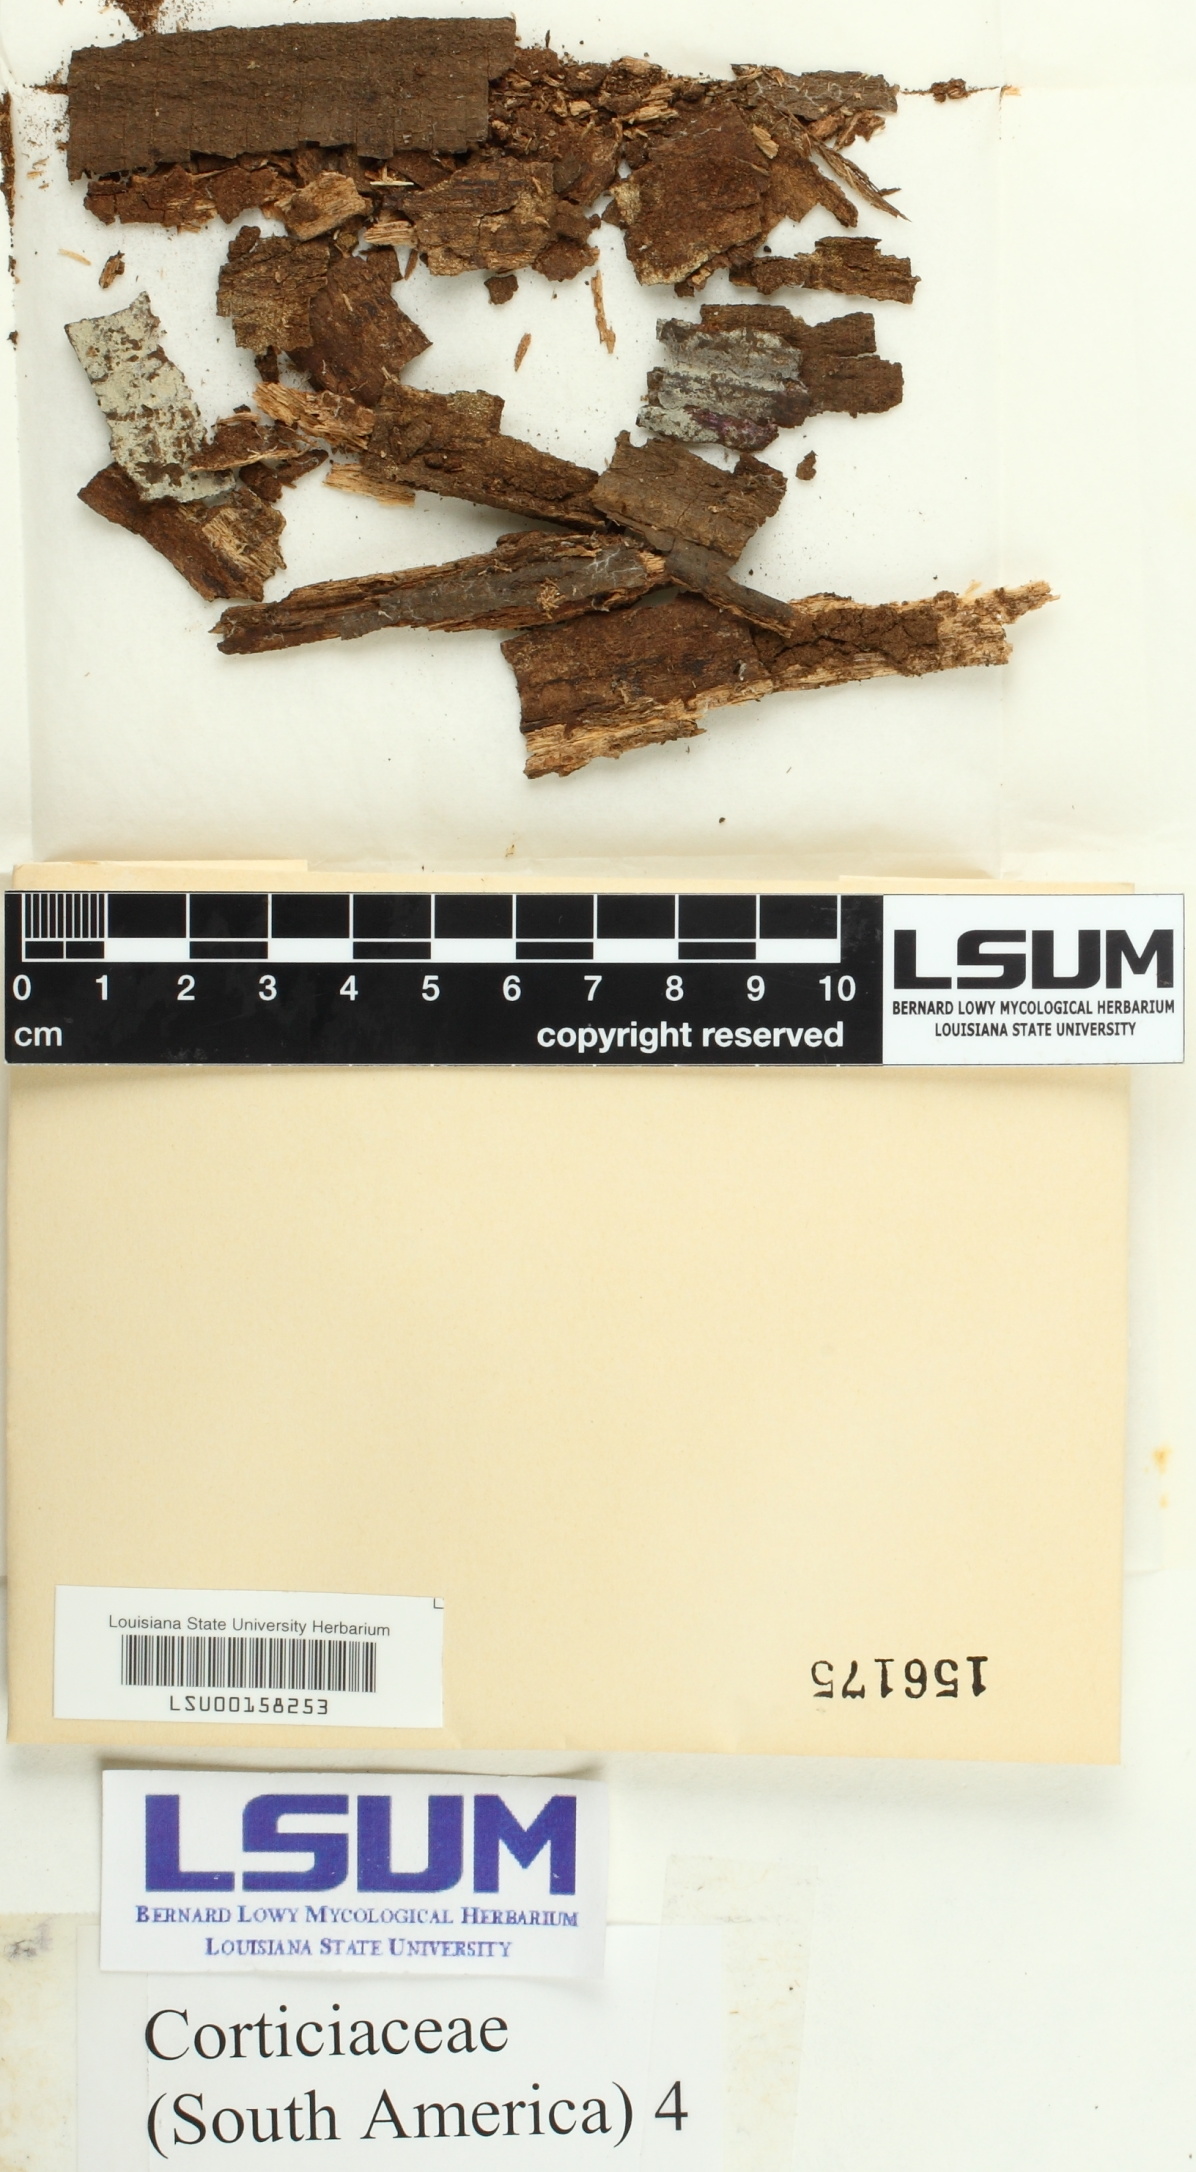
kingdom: Fungi
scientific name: Fungi
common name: Fungi
